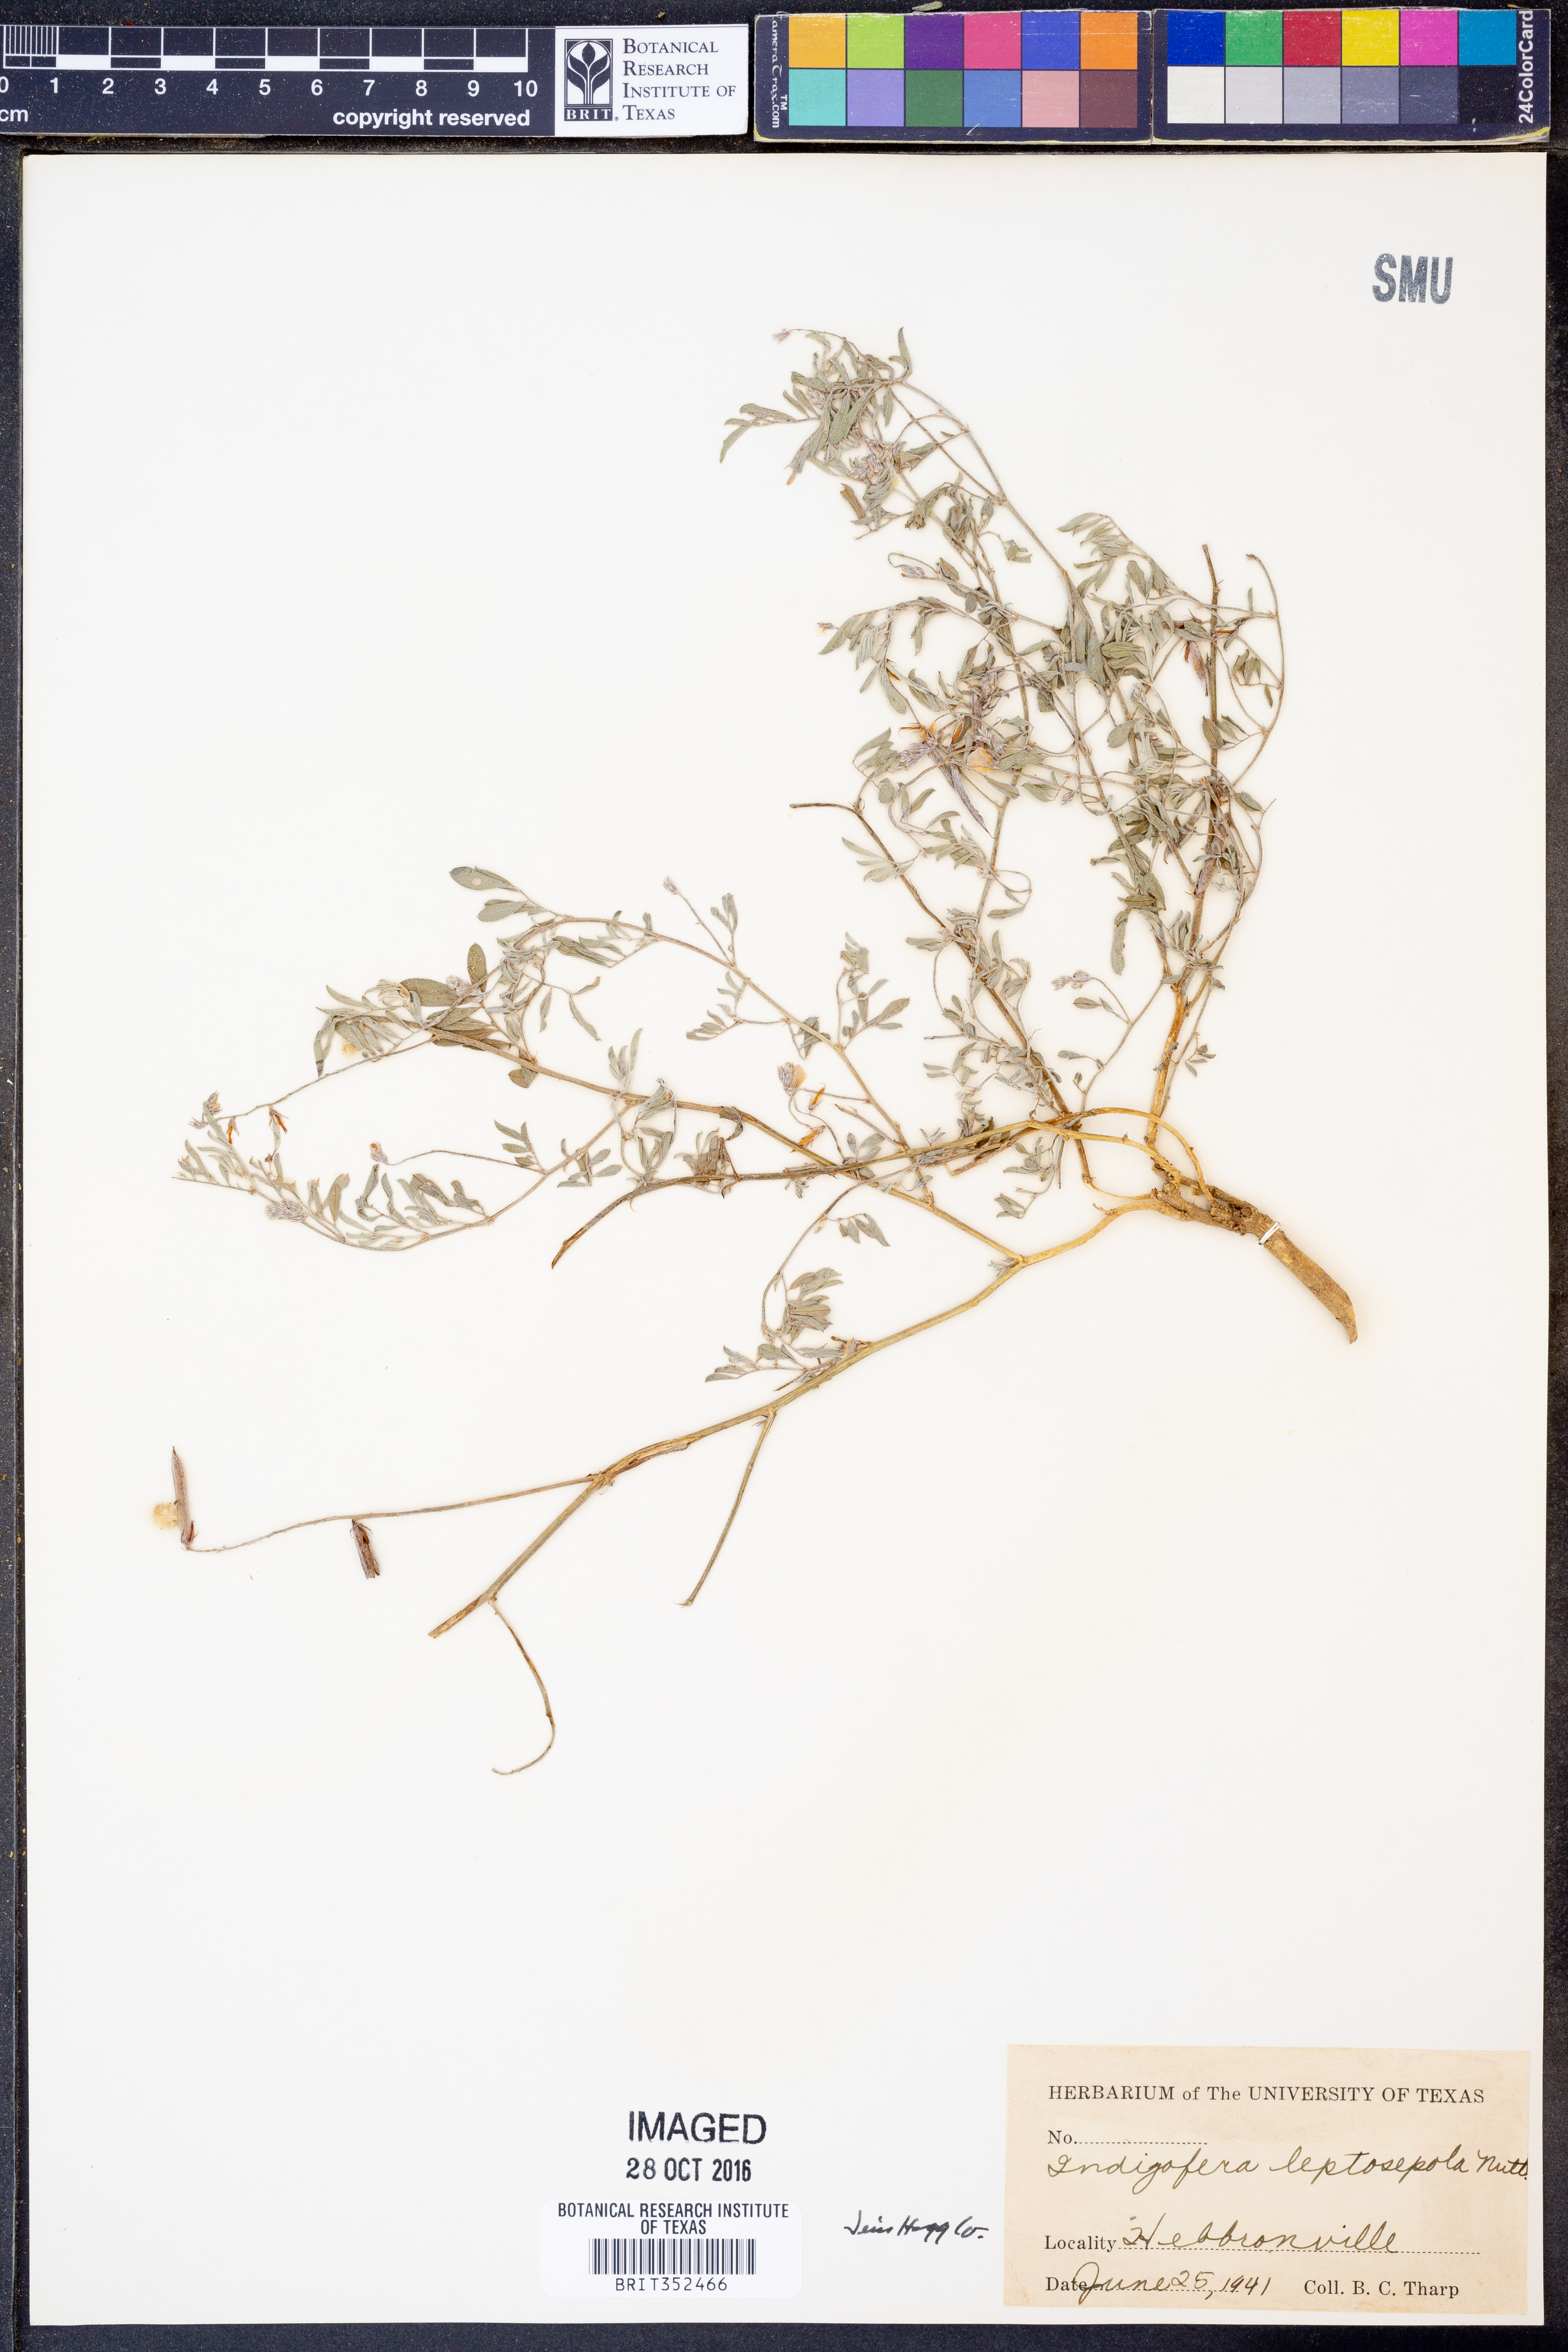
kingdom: Plantae
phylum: Tracheophyta
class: Magnoliopsida
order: Fabales
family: Fabaceae
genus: Indigofera
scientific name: Indigofera argutidens
